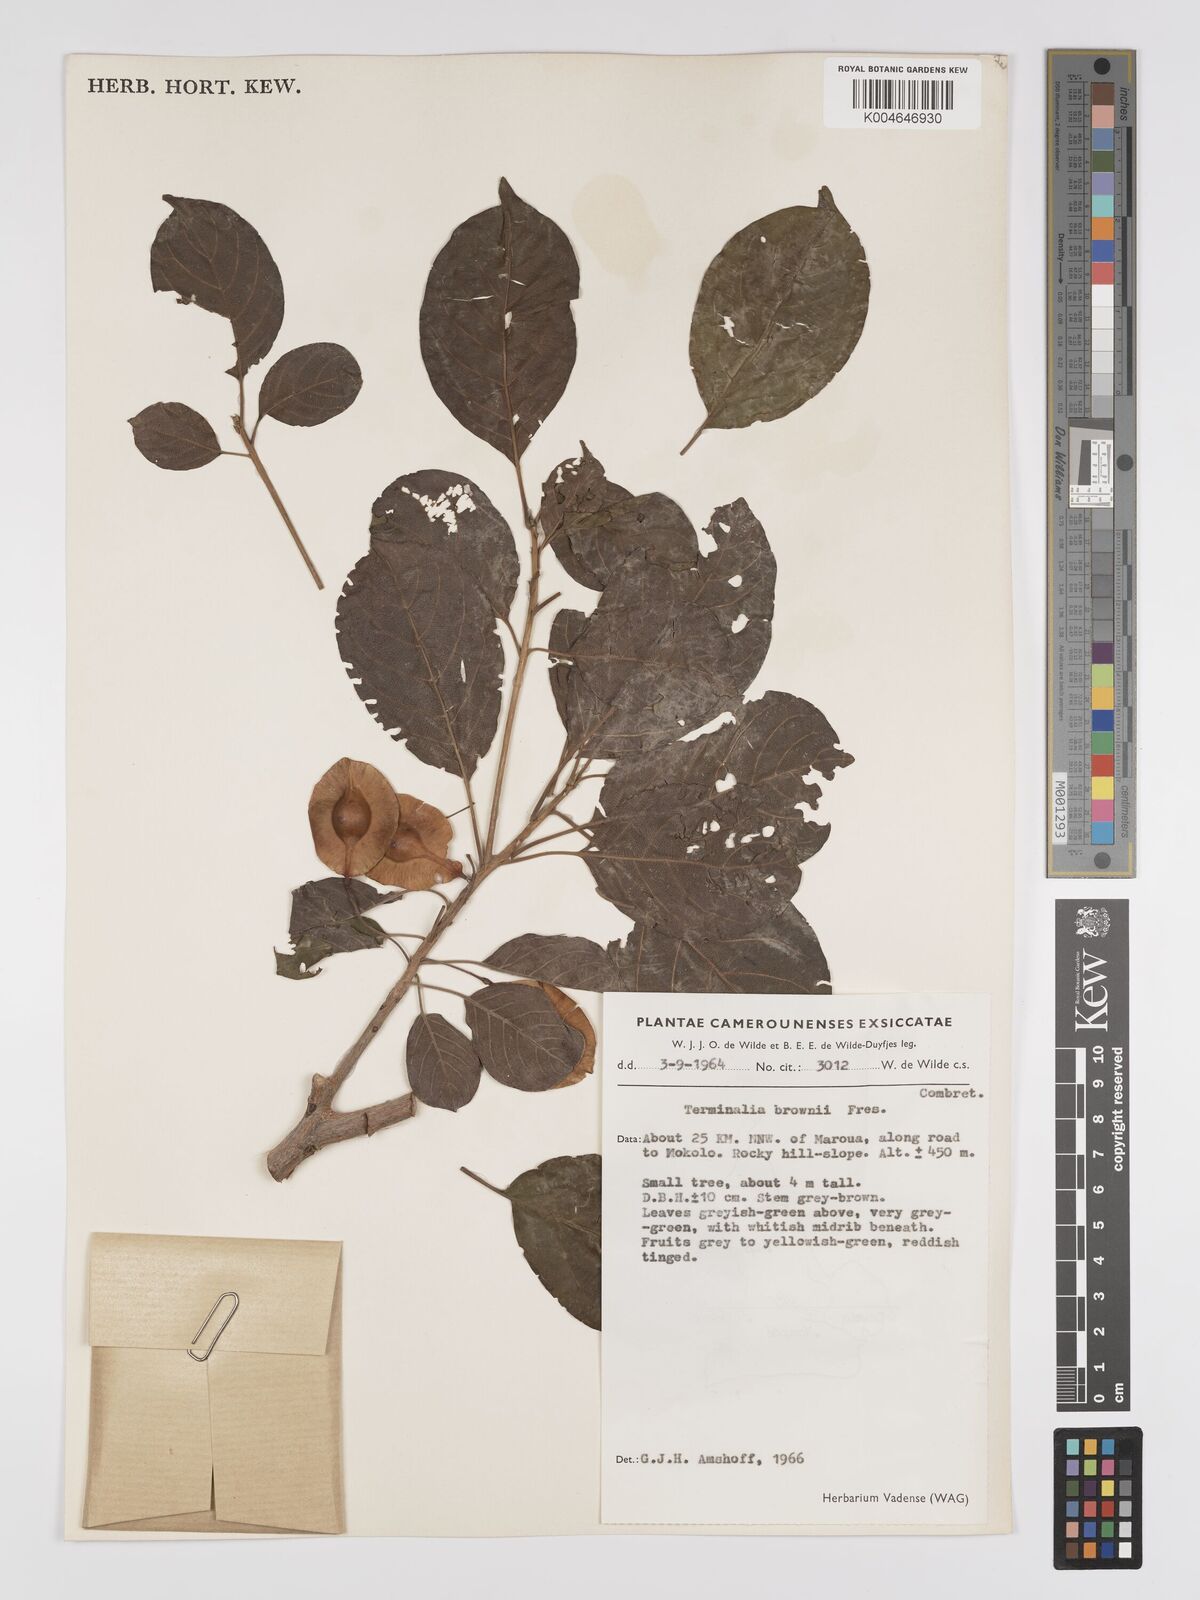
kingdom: Plantae
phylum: Tracheophyta
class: Magnoliopsida
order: Myrtales
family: Combretaceae
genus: Terminalia
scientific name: Terminalia brownii
